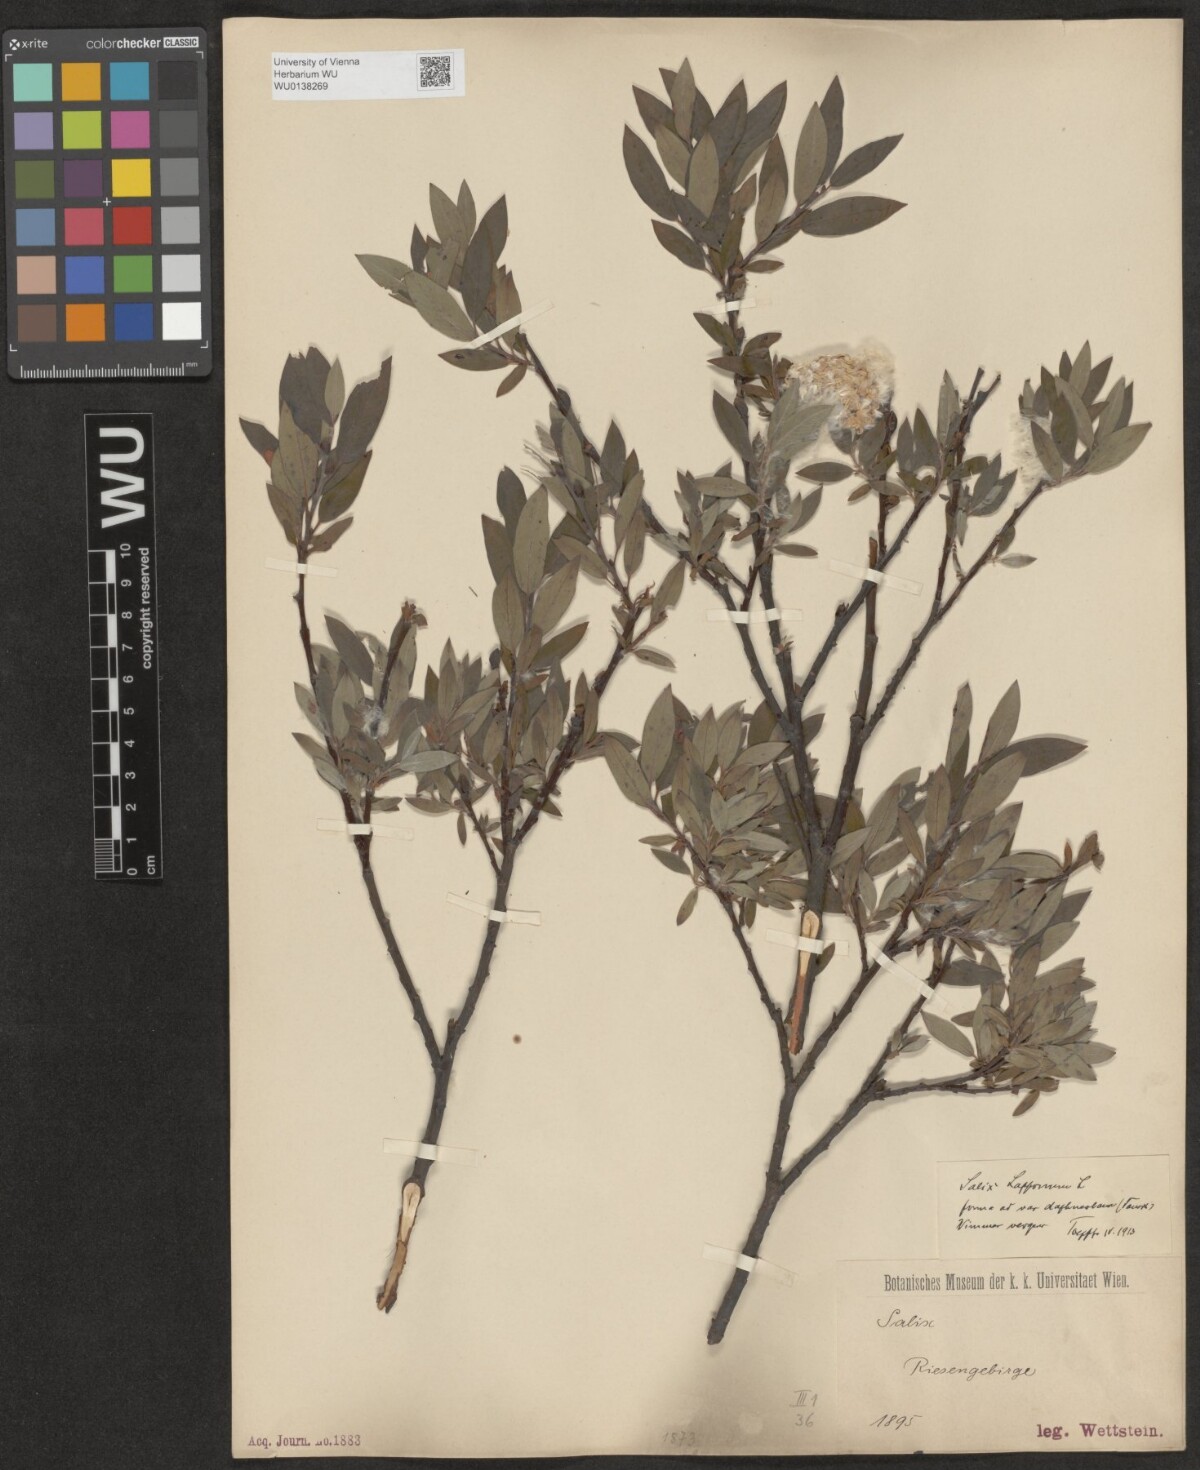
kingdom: Plantae
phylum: Tracheophyta
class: Magnoliopsida
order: Malpighiales
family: Salicaceae
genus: Salix
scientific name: Salix lapponum
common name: Downy willow
